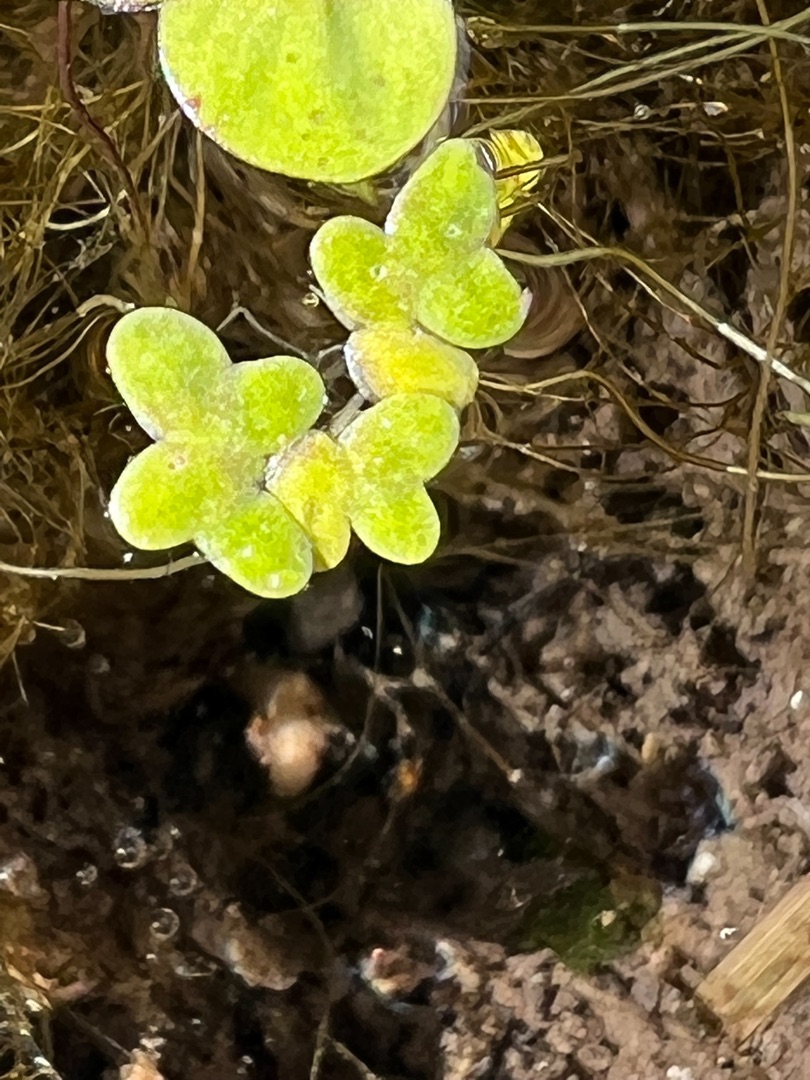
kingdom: Plantae
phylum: Tracheophyta
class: Liliopsida
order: Alismatales
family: Araceae
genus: Lemna
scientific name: Lemna minor
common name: Liden andemad
